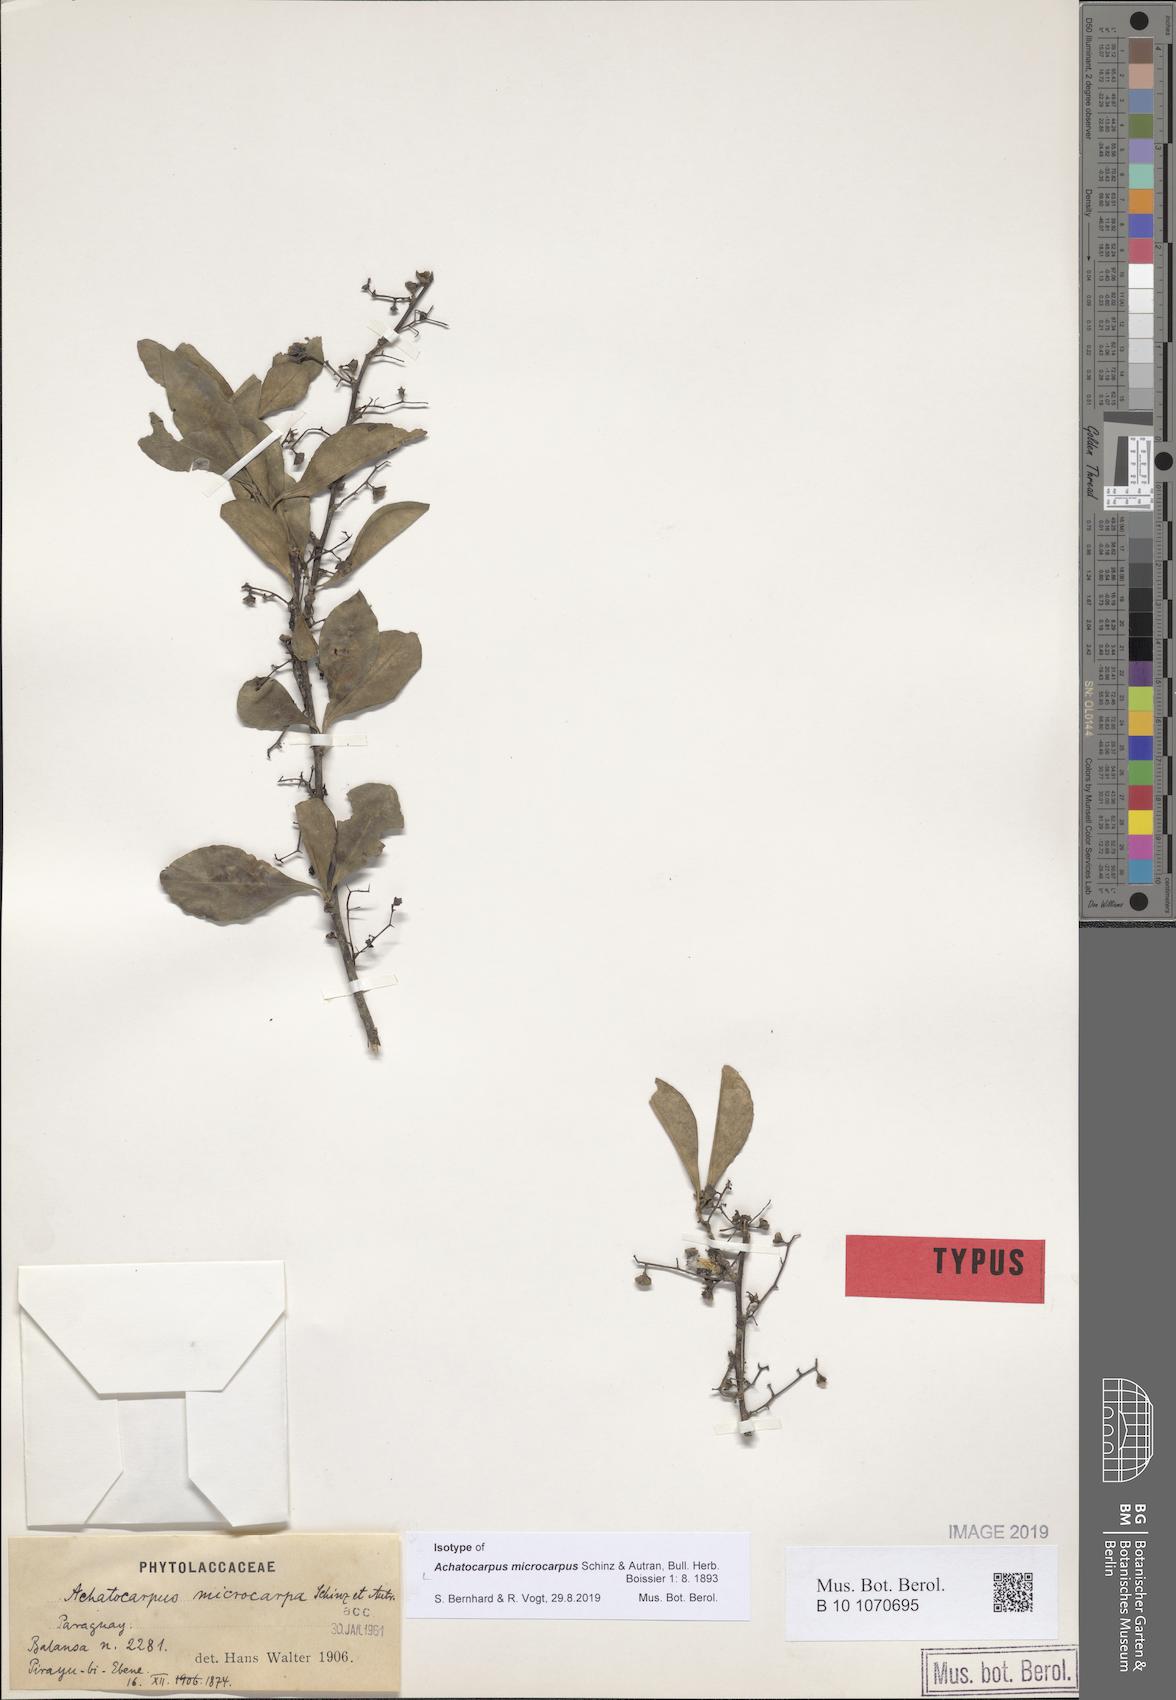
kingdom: Plantae
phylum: Tracheophyta
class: Magnoliopsida
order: Caryophyllales
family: Achatocarpaceae
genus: Achatocarpus
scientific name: Achatocarpus microcarpus
